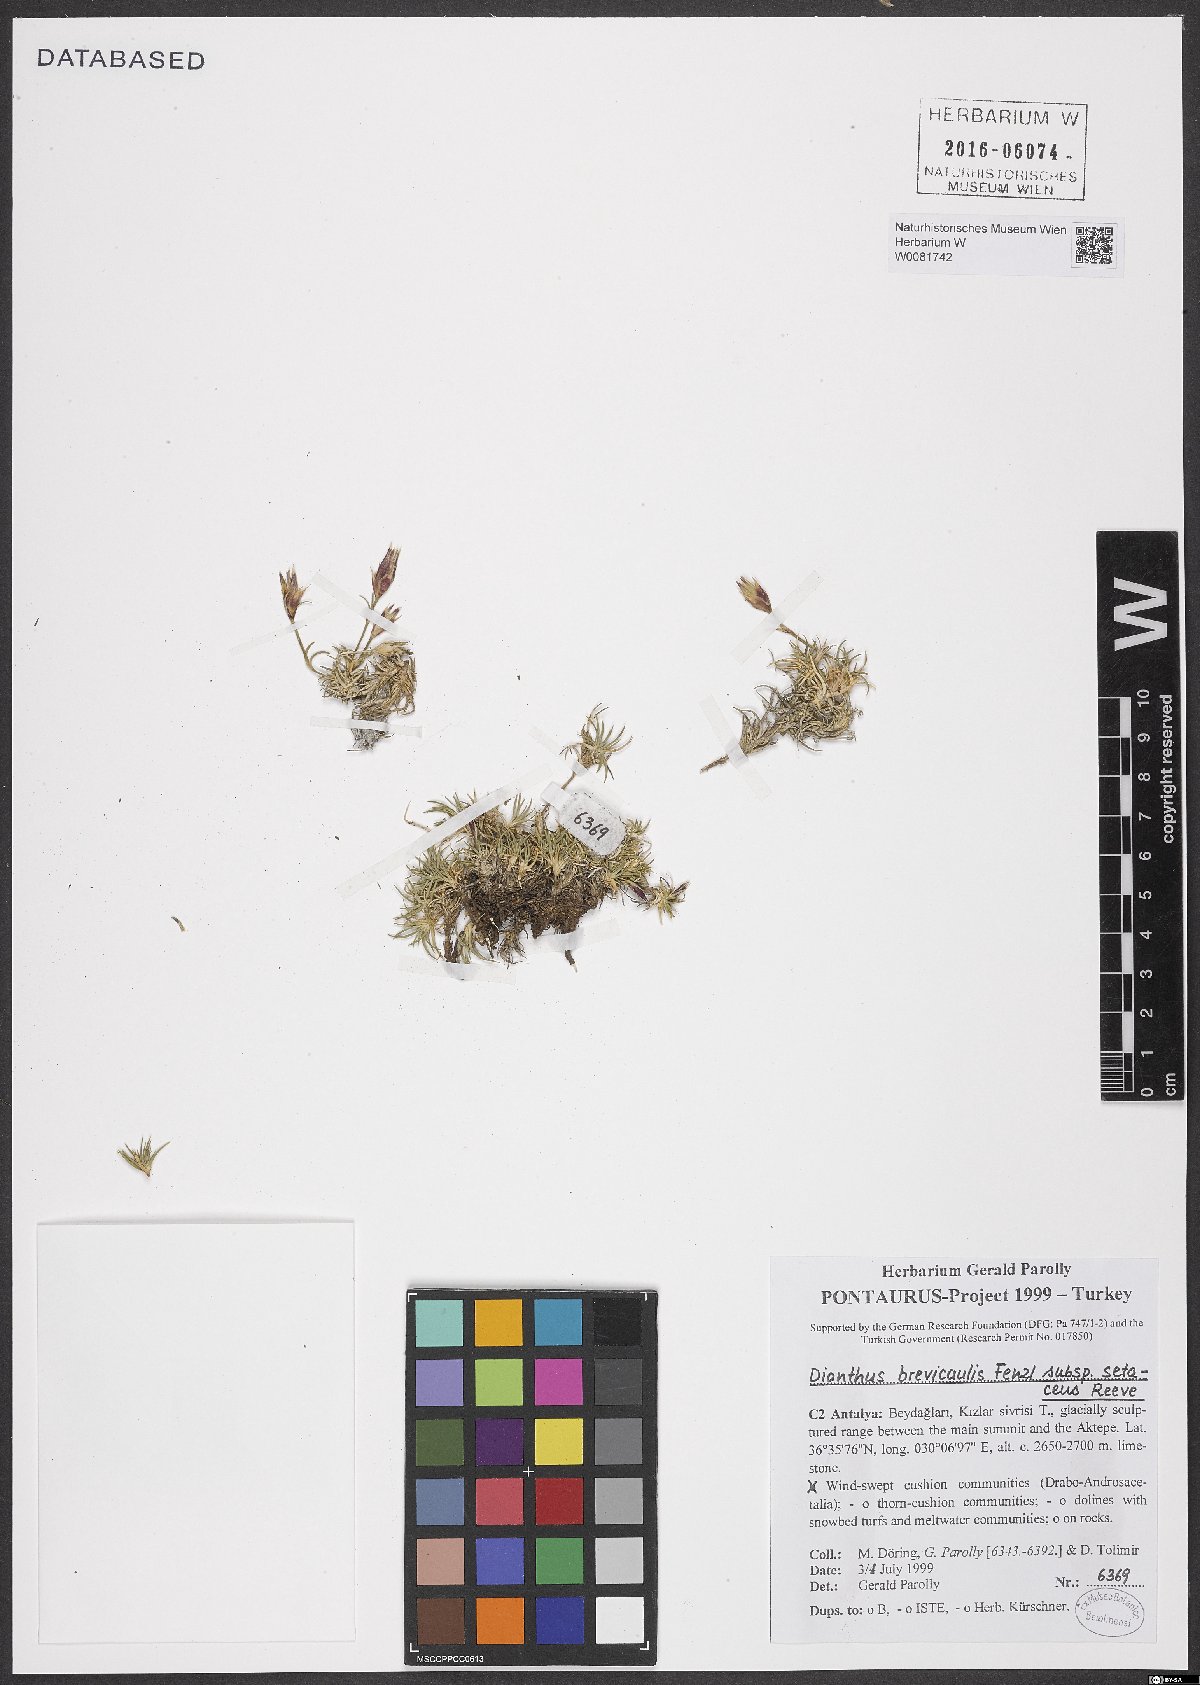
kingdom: Plantae
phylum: Tracheophyta
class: Magnoliopsida
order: Caryophyllales
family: Caryophyllaceae
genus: Dianthus
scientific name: Dianthus brevicaulis
